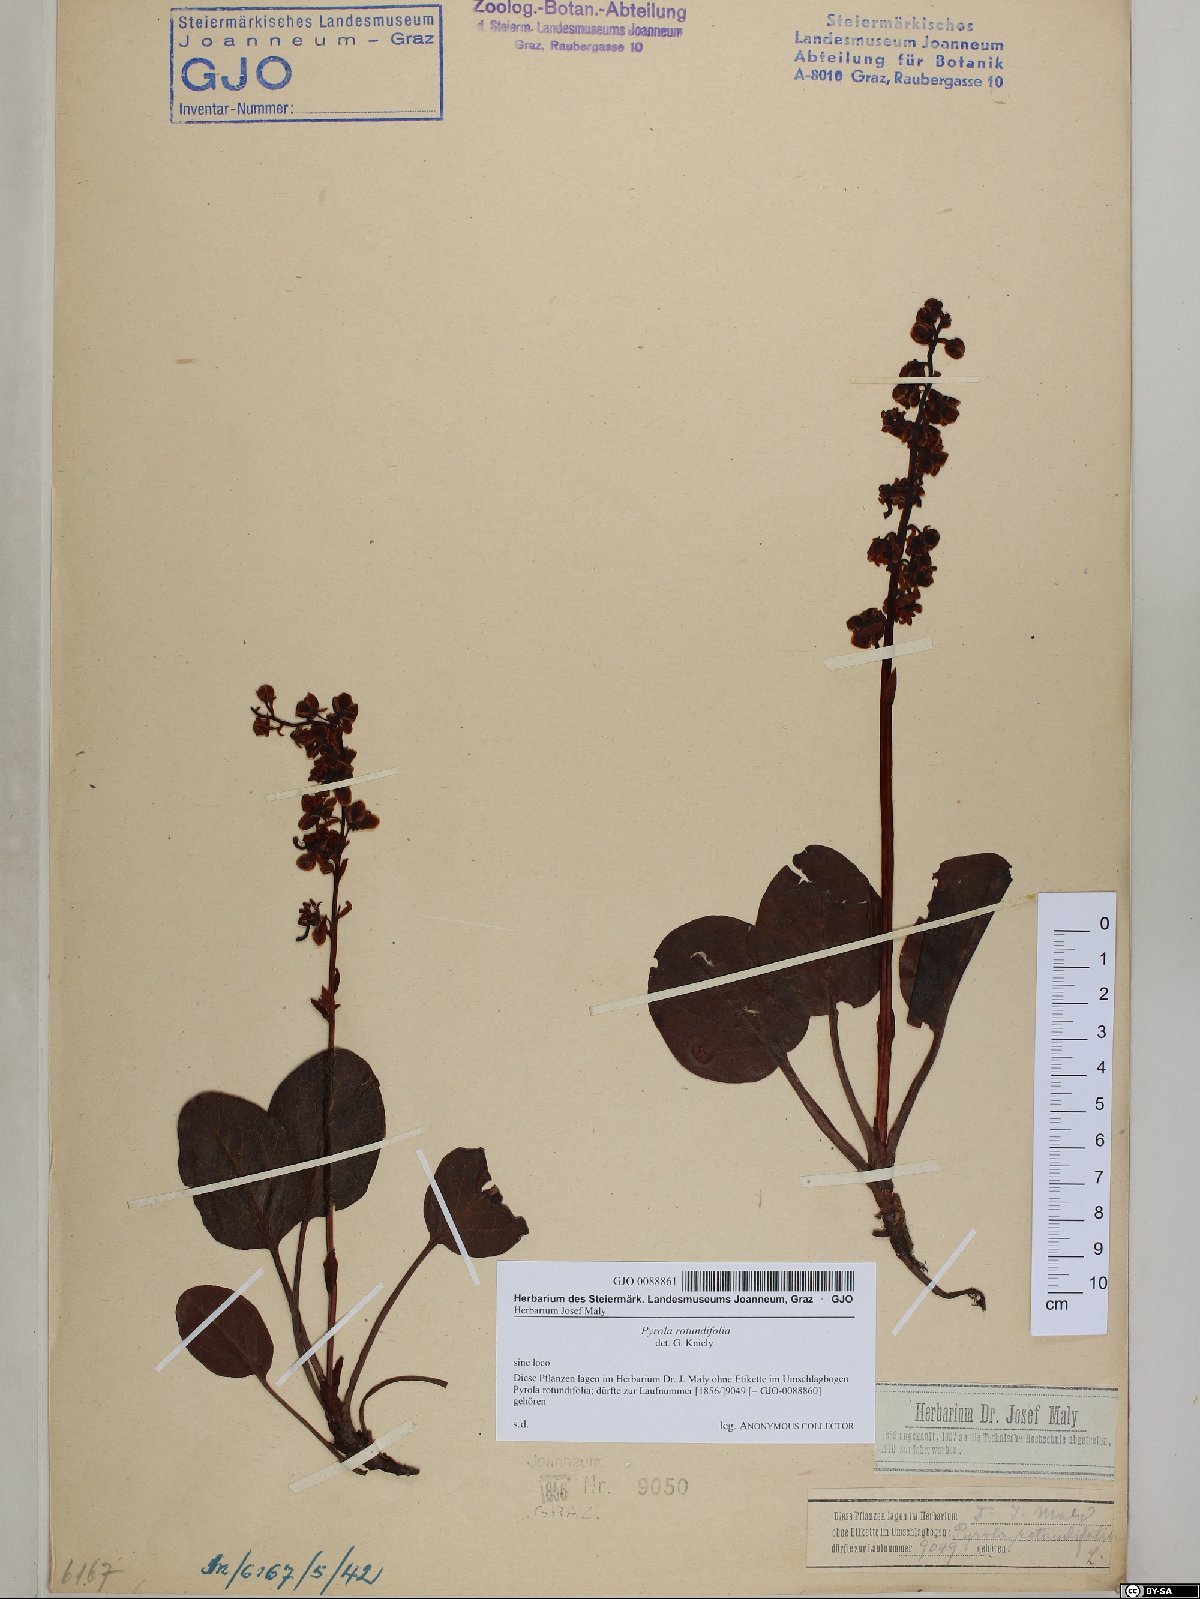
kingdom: Plantae
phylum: Tracheophyta
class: Magnoliopsida
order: Ericales
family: Ericaceae
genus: Pyrola
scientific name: Pyrola rotundifolia
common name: Round-leaved wintergreen
